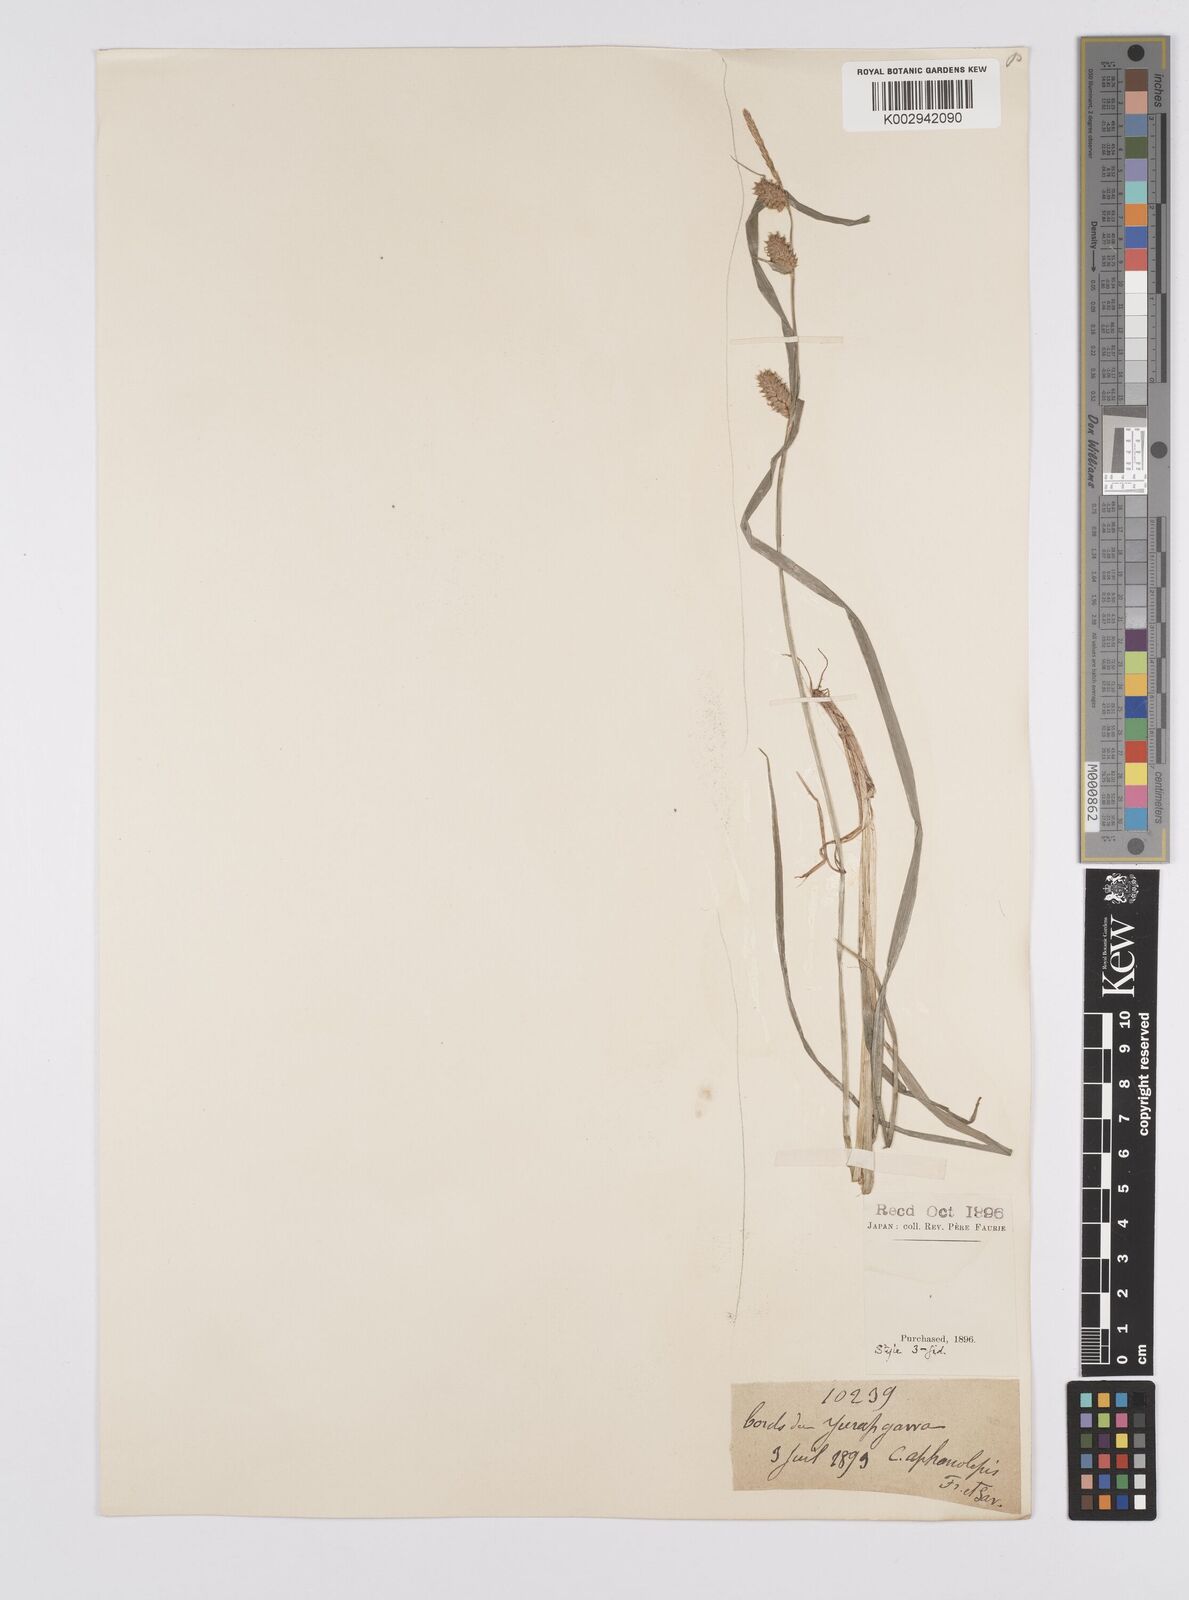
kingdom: Plantae
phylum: Tracheophyta
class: Liliopsida
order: Poales
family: Cyperaceae
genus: Carex
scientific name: Carex japonica
